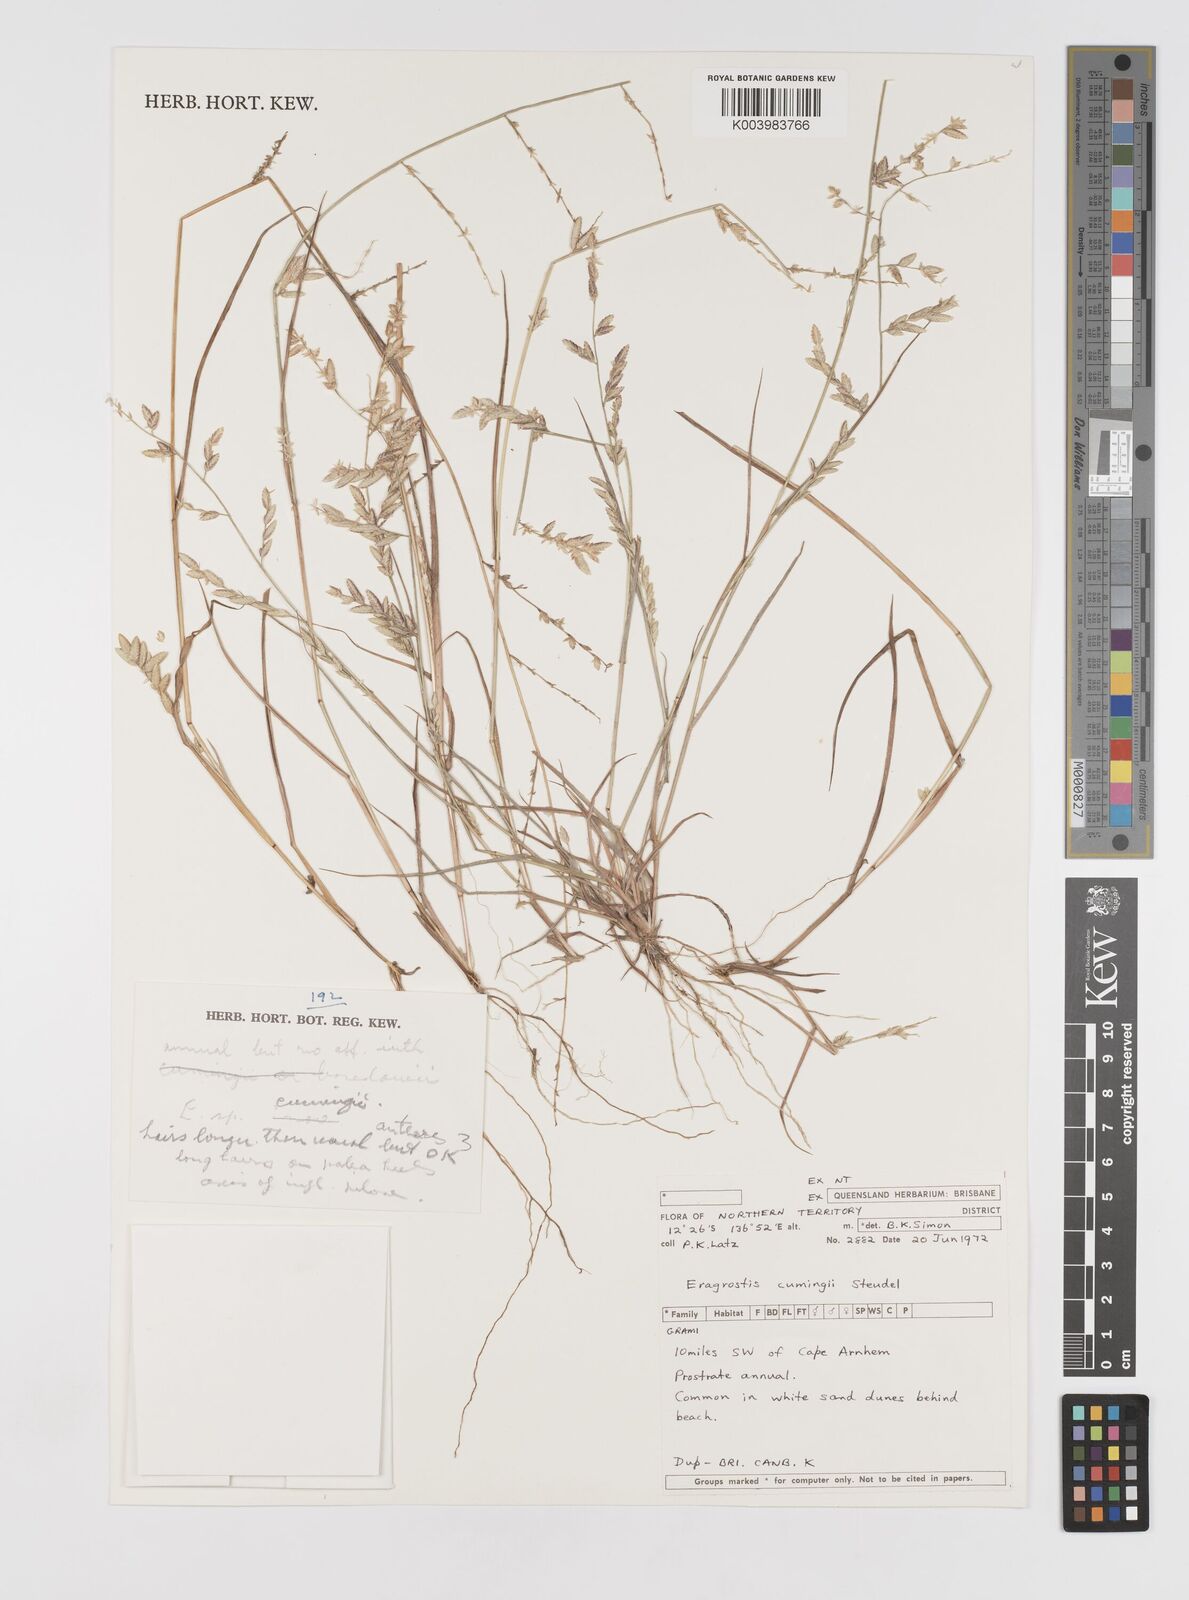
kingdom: Plantae
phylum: Tracheophyta
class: Liliopsida
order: Poales
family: Poaceae
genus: Eragrostis
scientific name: Eragrostis cumingii
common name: Cuming's lovegrass
